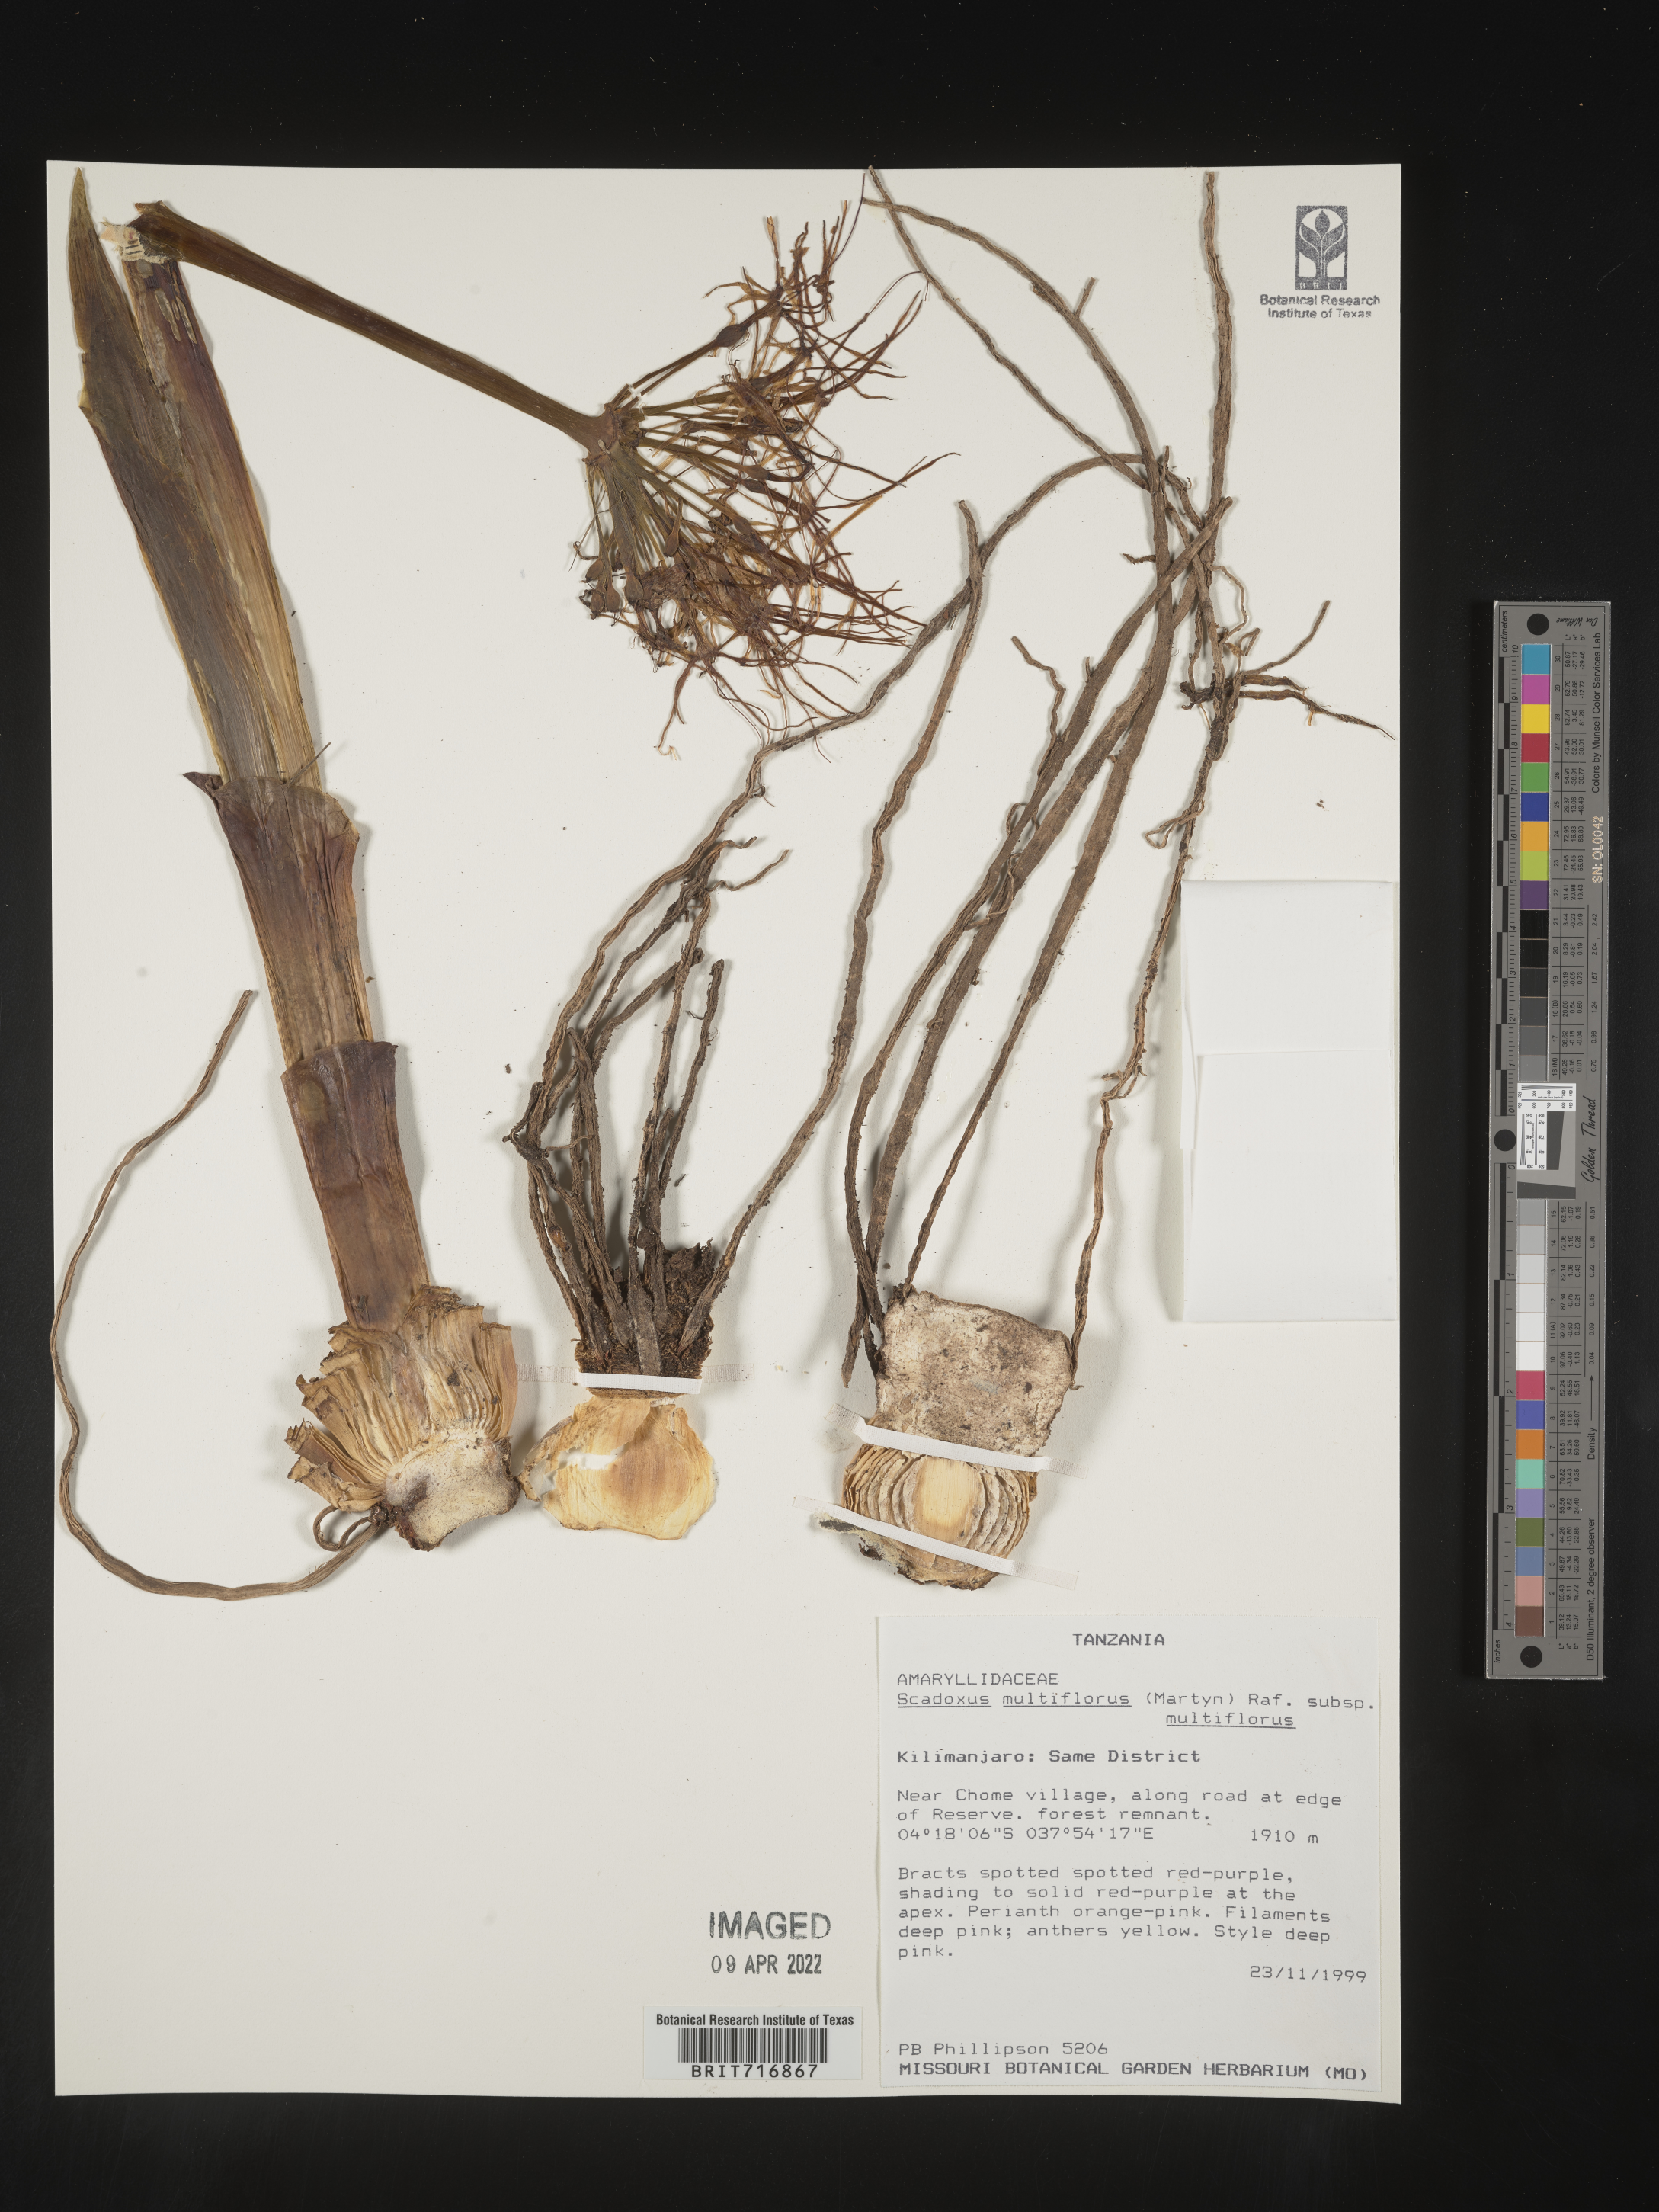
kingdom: Plantae
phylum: Tracheophyta
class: Liliopsida
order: Asparagales
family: Amaryllidaceae
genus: Scadoxus
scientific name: Scadoxus
